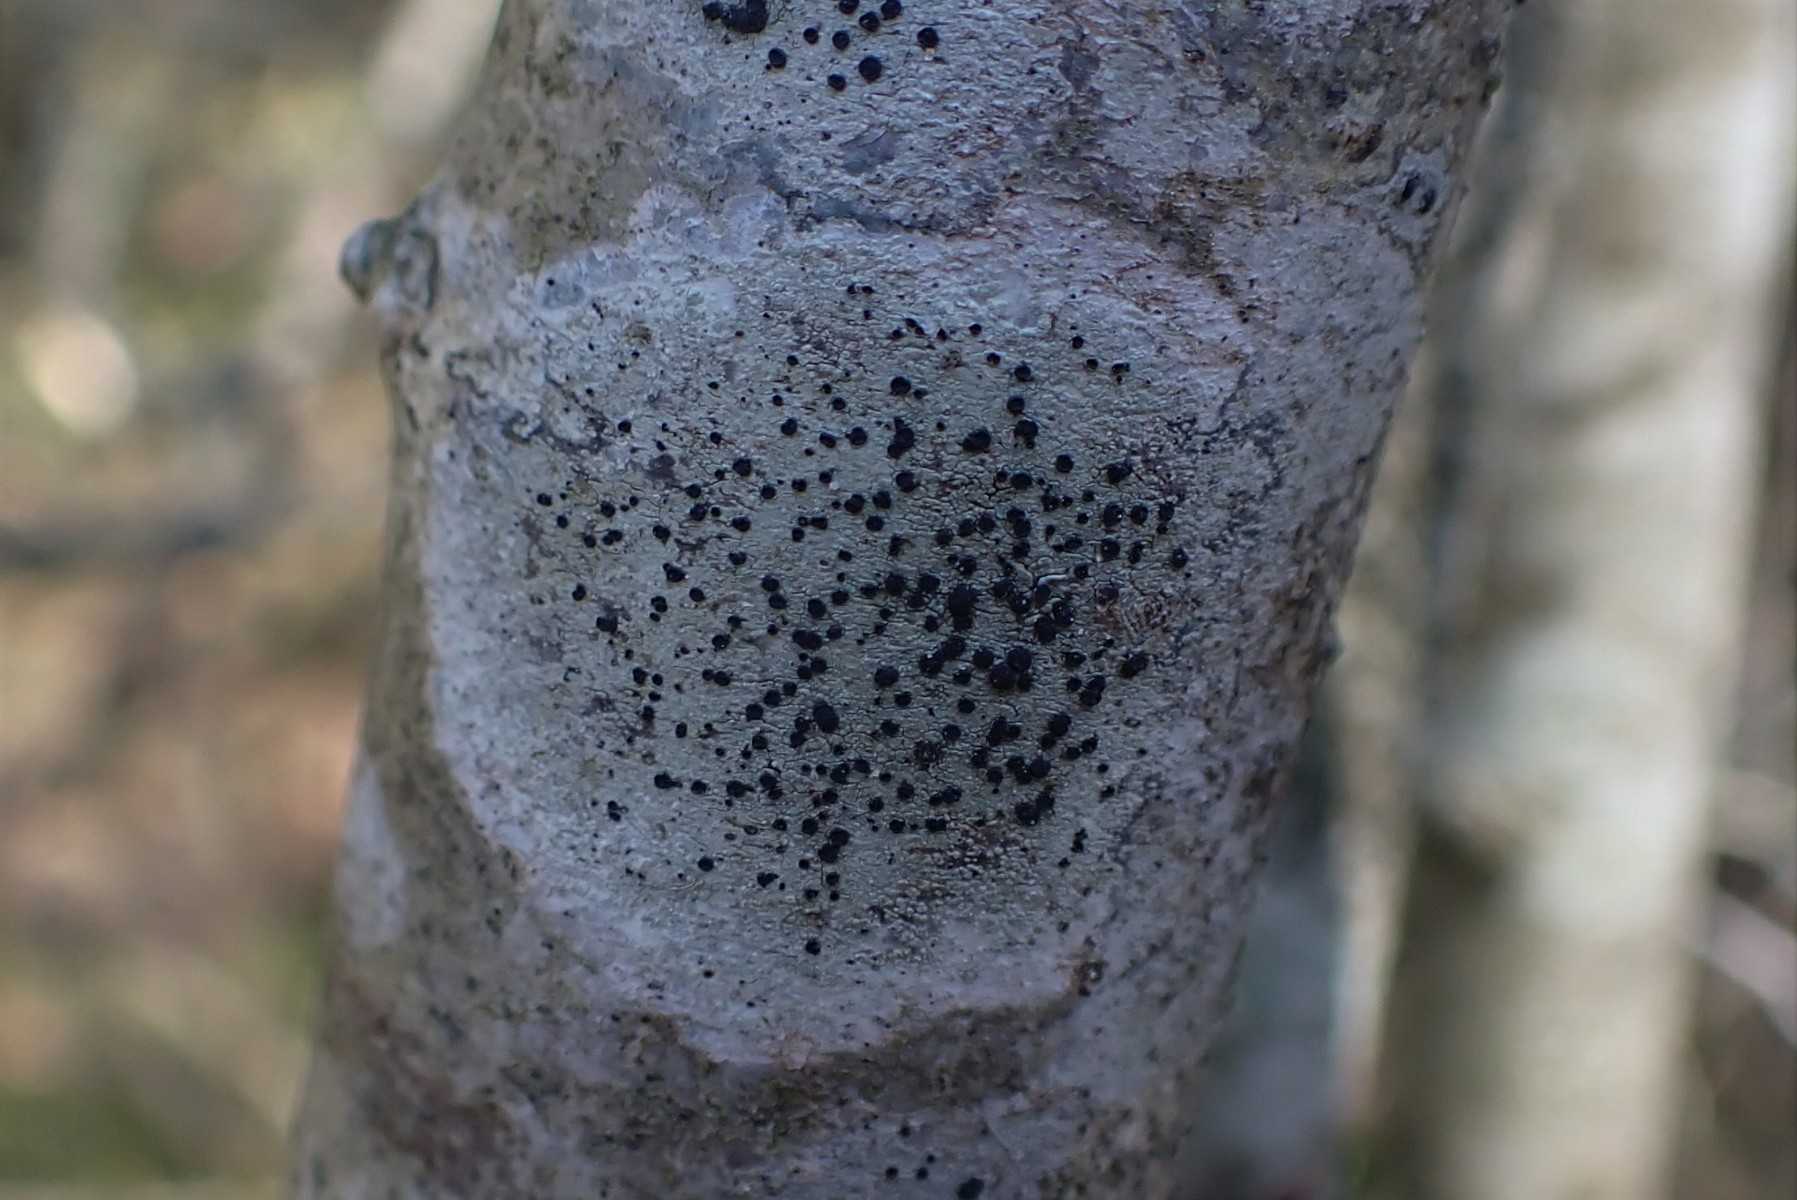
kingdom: Fungi
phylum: Ascomycota
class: Lecanoromycetes
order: Lecanorales
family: Lecanoraceae
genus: Lecidella
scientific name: Lecidella elaeochroma
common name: grågrøn skivelav
